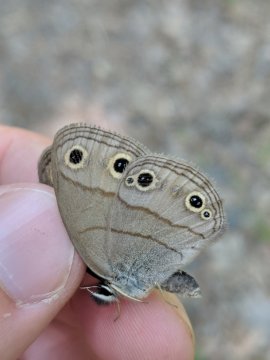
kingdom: Animalia
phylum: Arthropoda
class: Insecta
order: Lepidoptera
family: Nymphalidae
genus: Euptychia
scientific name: Euptychia cymela
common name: Little Wood Satyr
